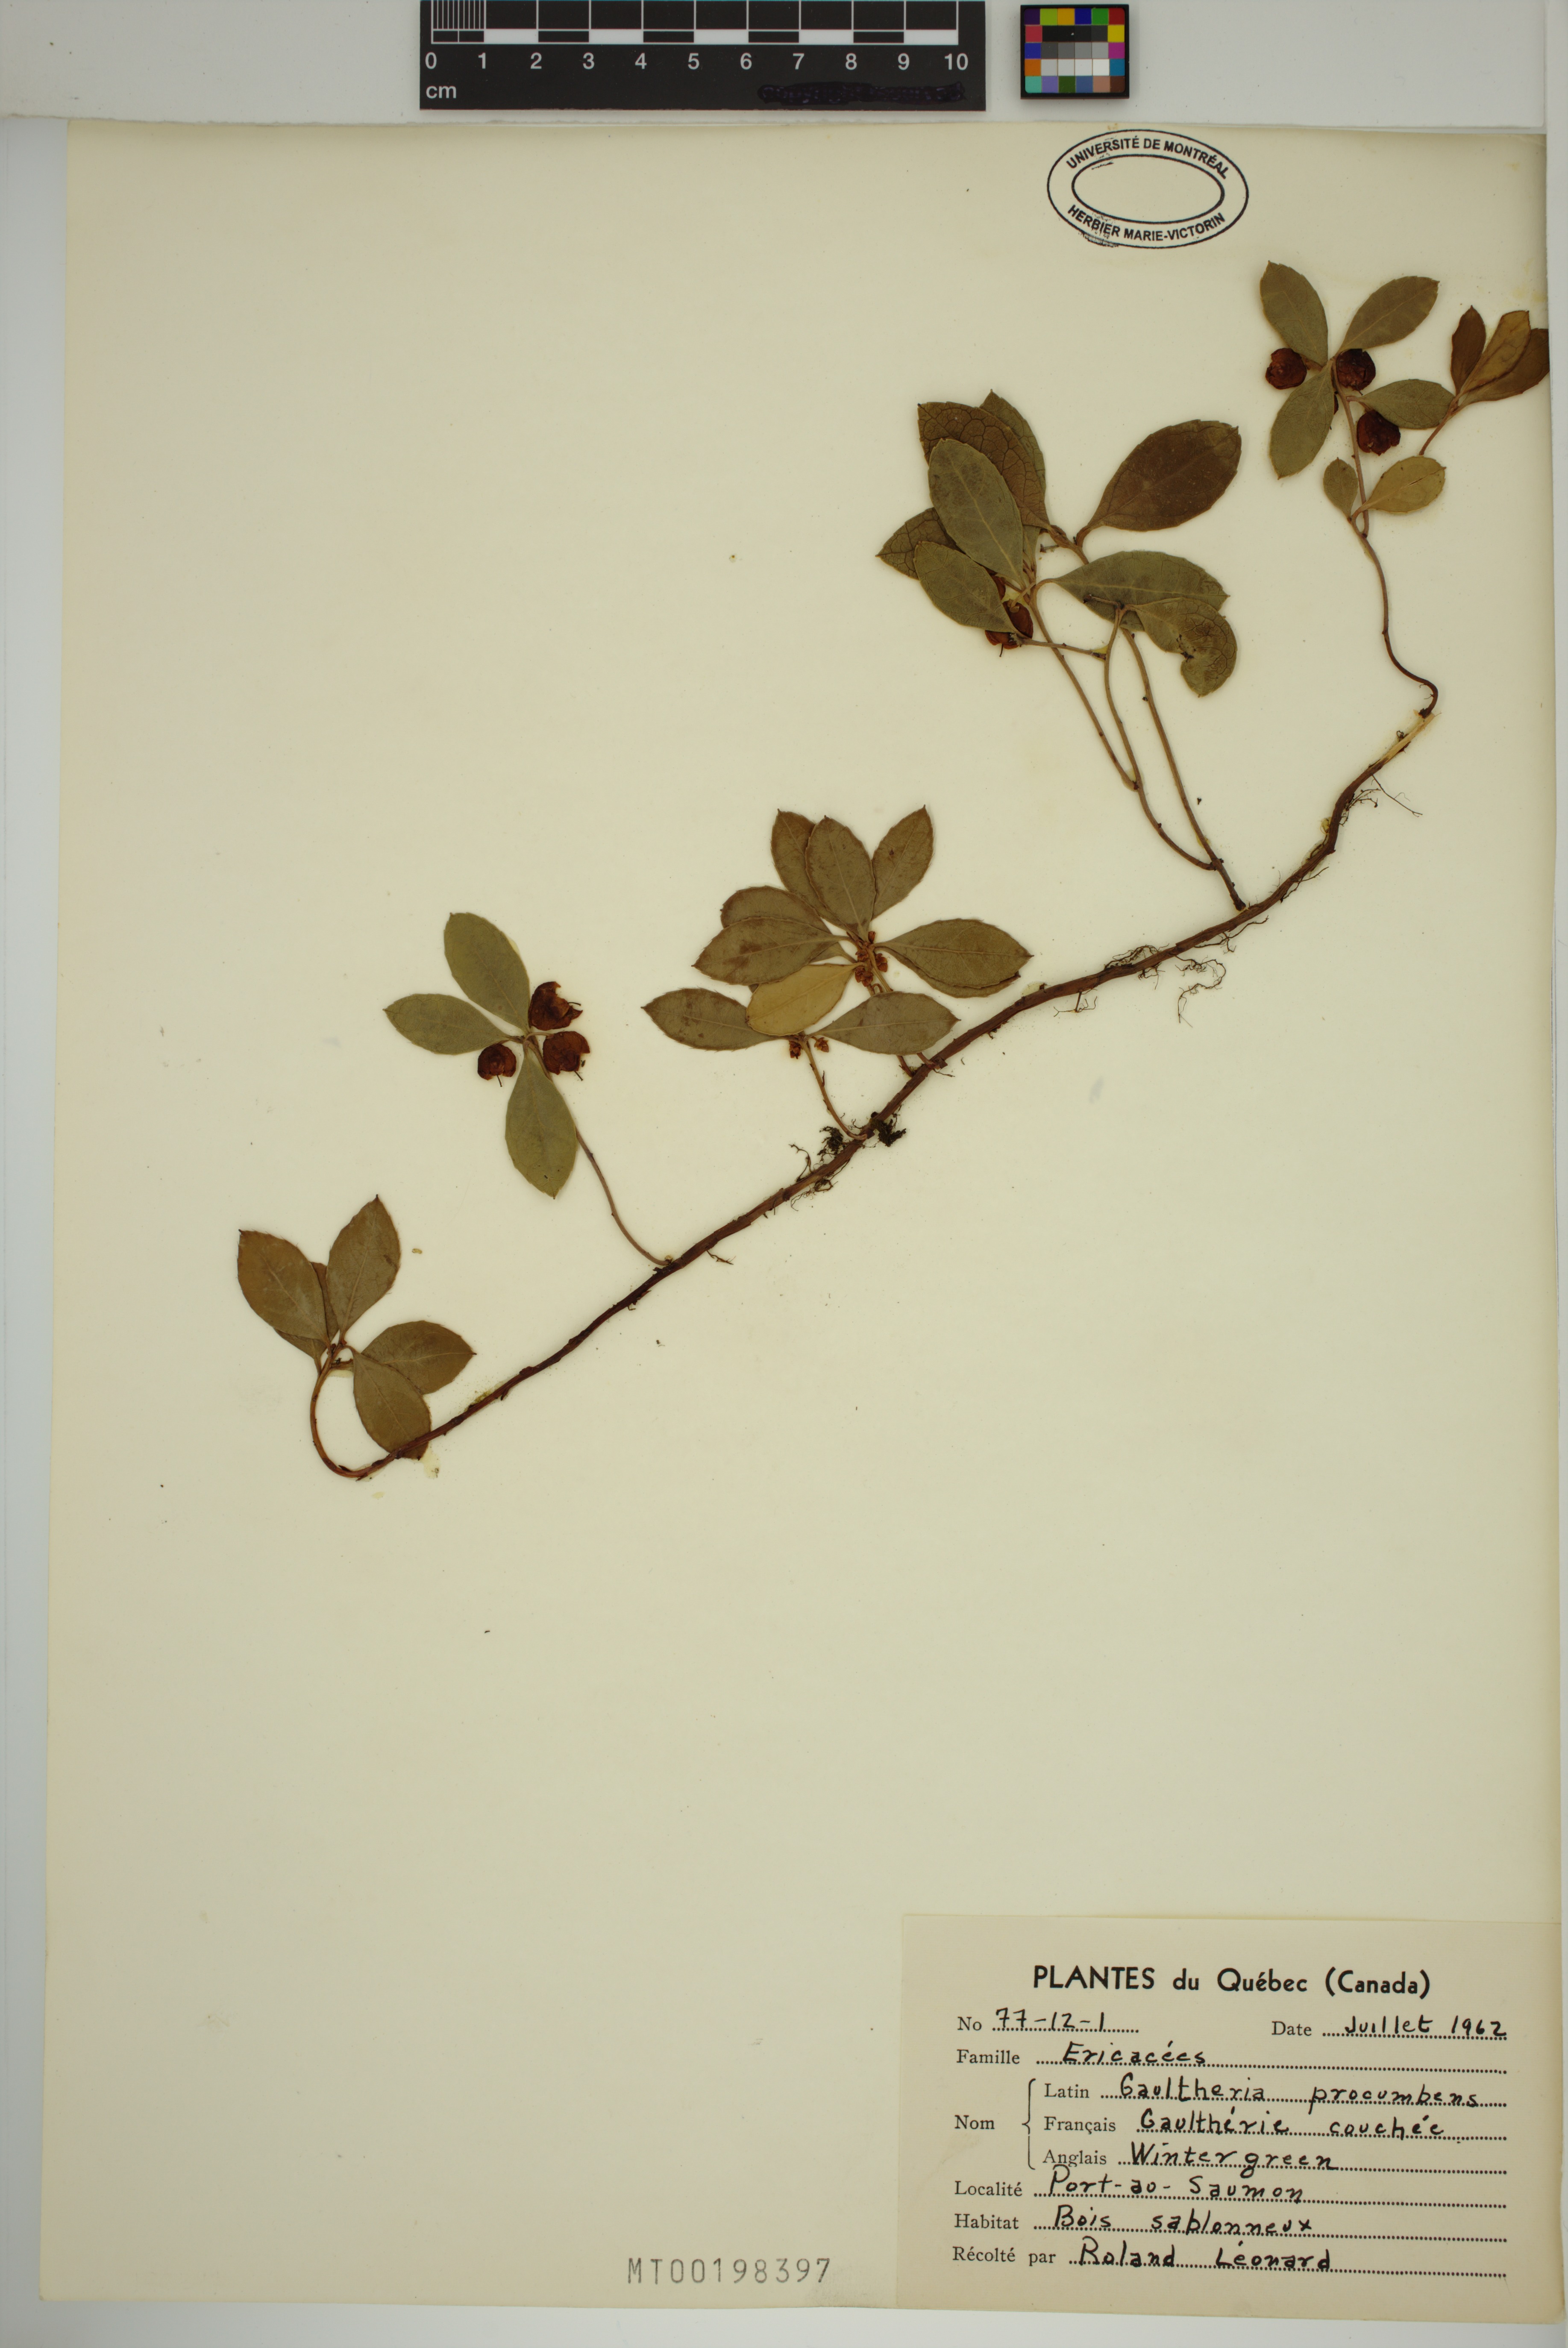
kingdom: Plantae
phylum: Tracheophyta
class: Magnoliopsida
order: Ericales
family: Ericaceae
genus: Gaultheria
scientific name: Gaultheria procumbens
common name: Checkerberry
